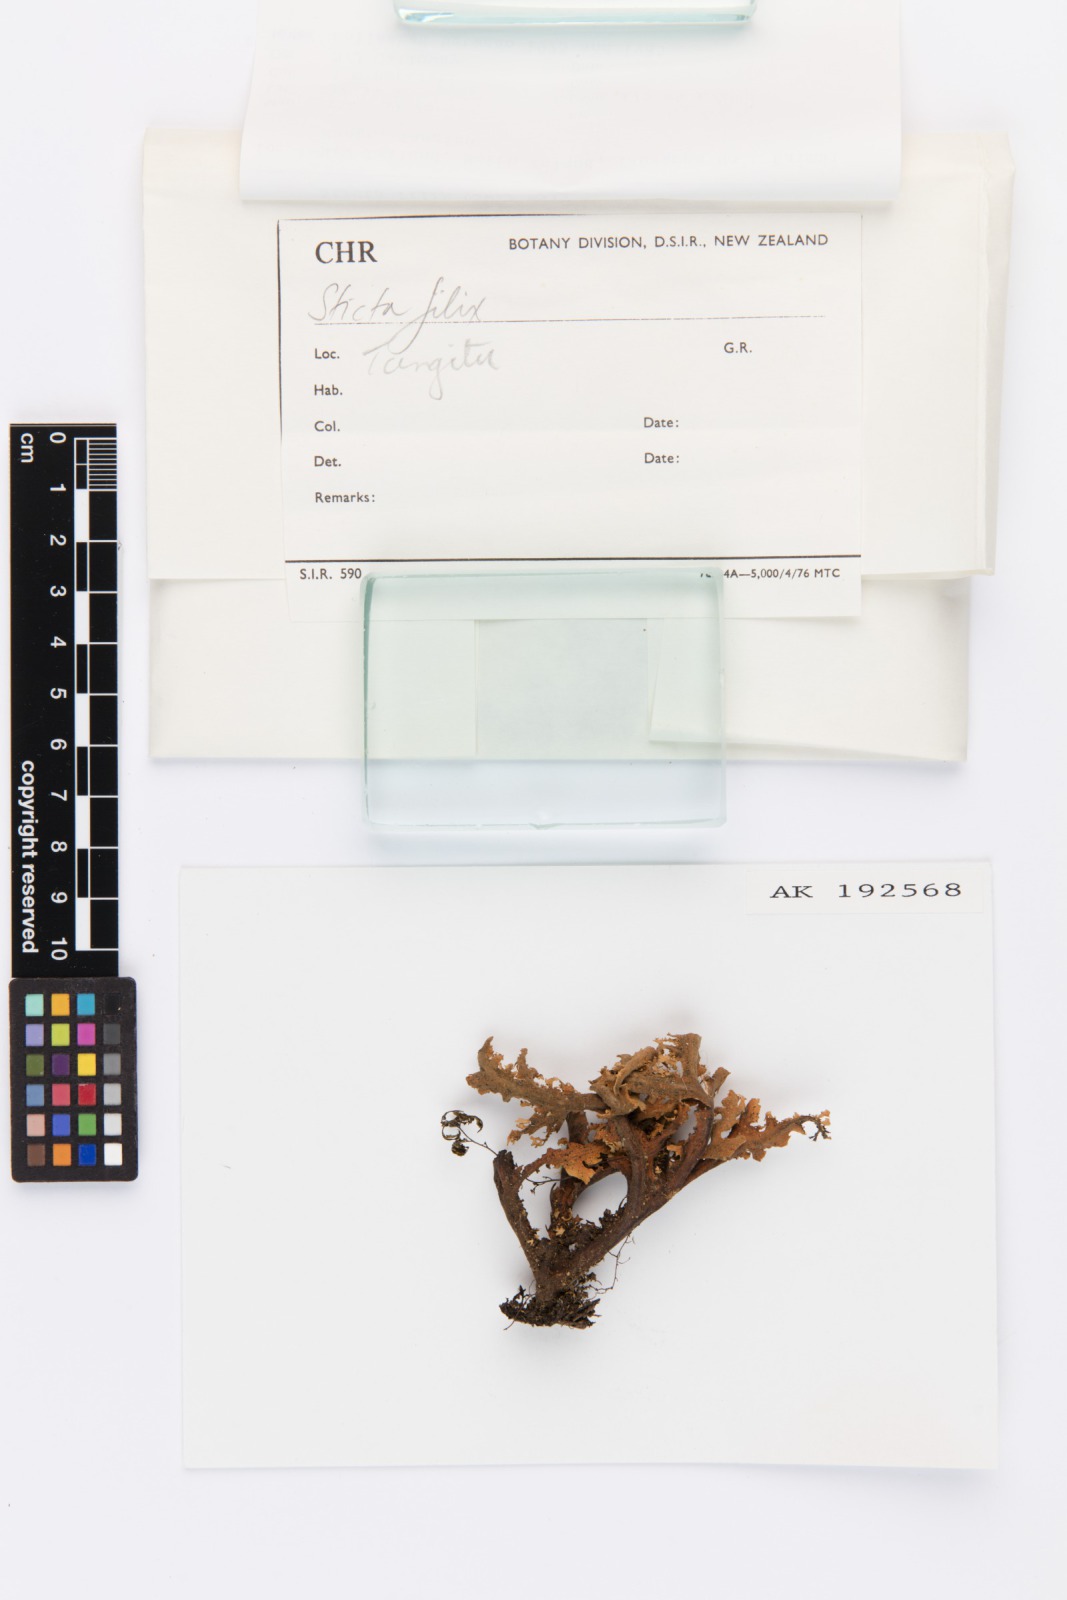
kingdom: Fungi
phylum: Ascomycota
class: Lecanoromycetes
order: Peltigerales
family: Lobariaceae
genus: Sticta
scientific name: Sticta filix
